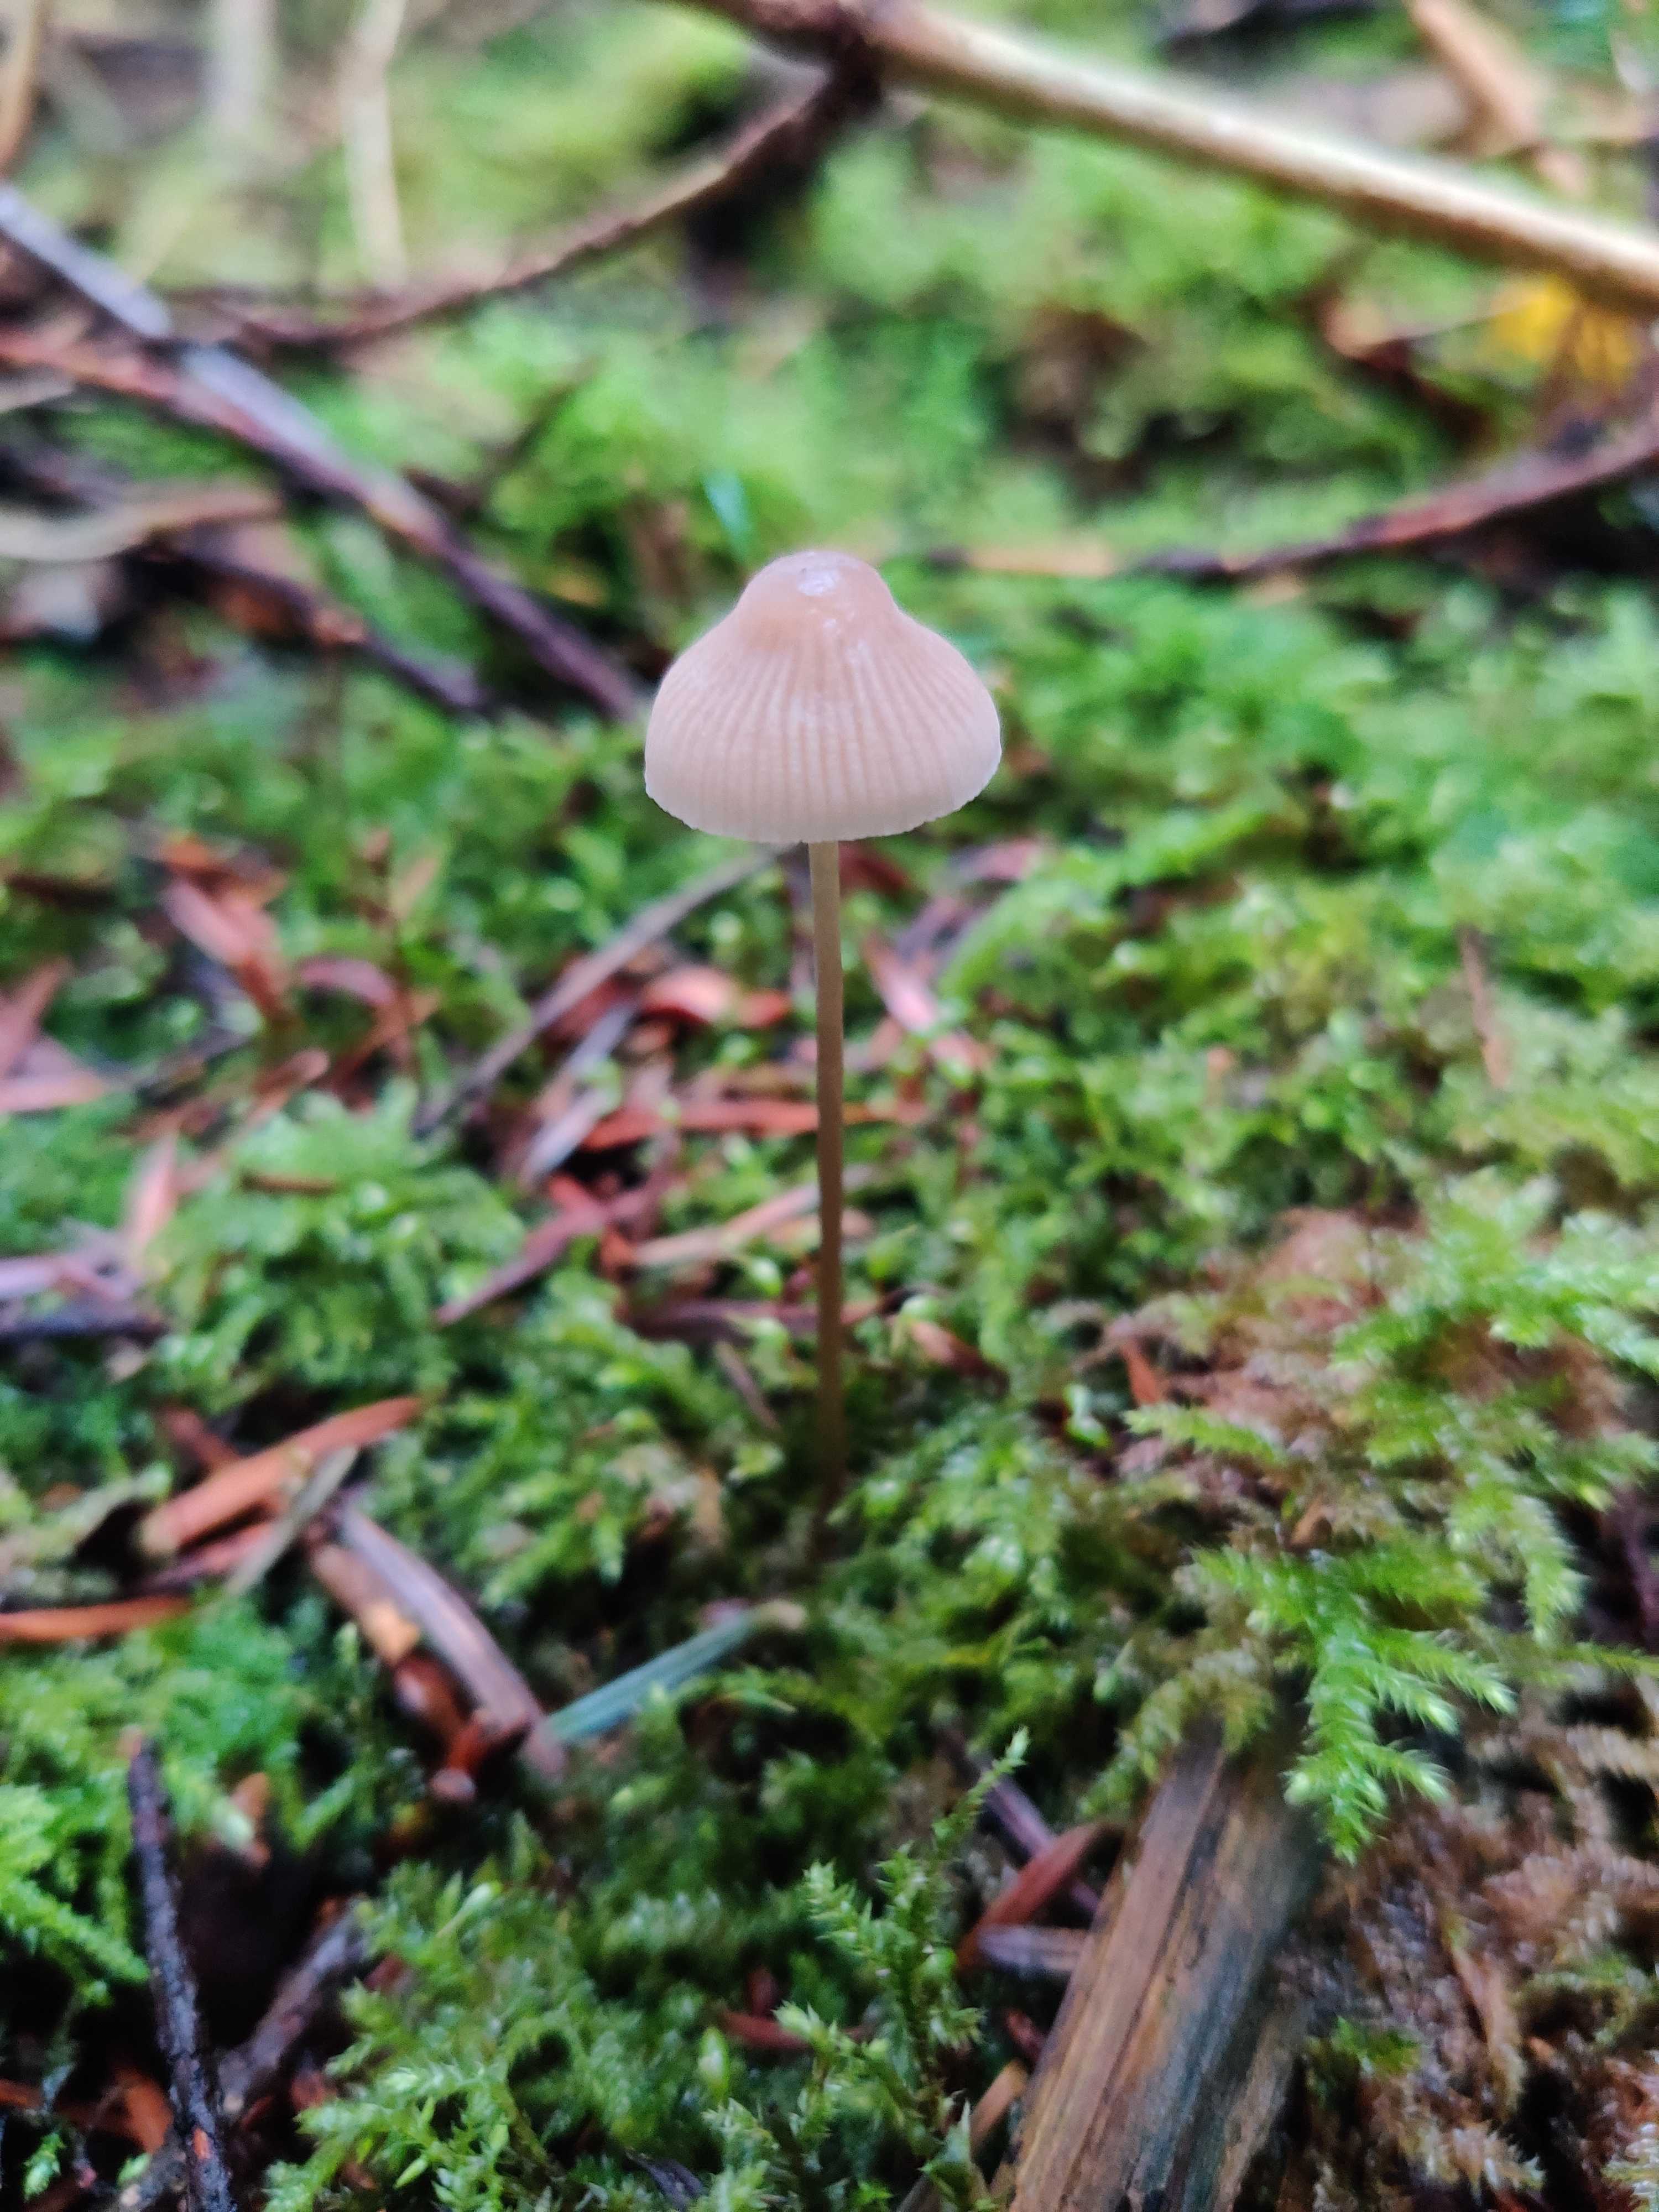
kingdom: Fungi
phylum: Basidiomycota
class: Agaricomycetes
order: Agaricales
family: Mycenaceae
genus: Mycena
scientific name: Mycena metata
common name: rødlig huesvamp
